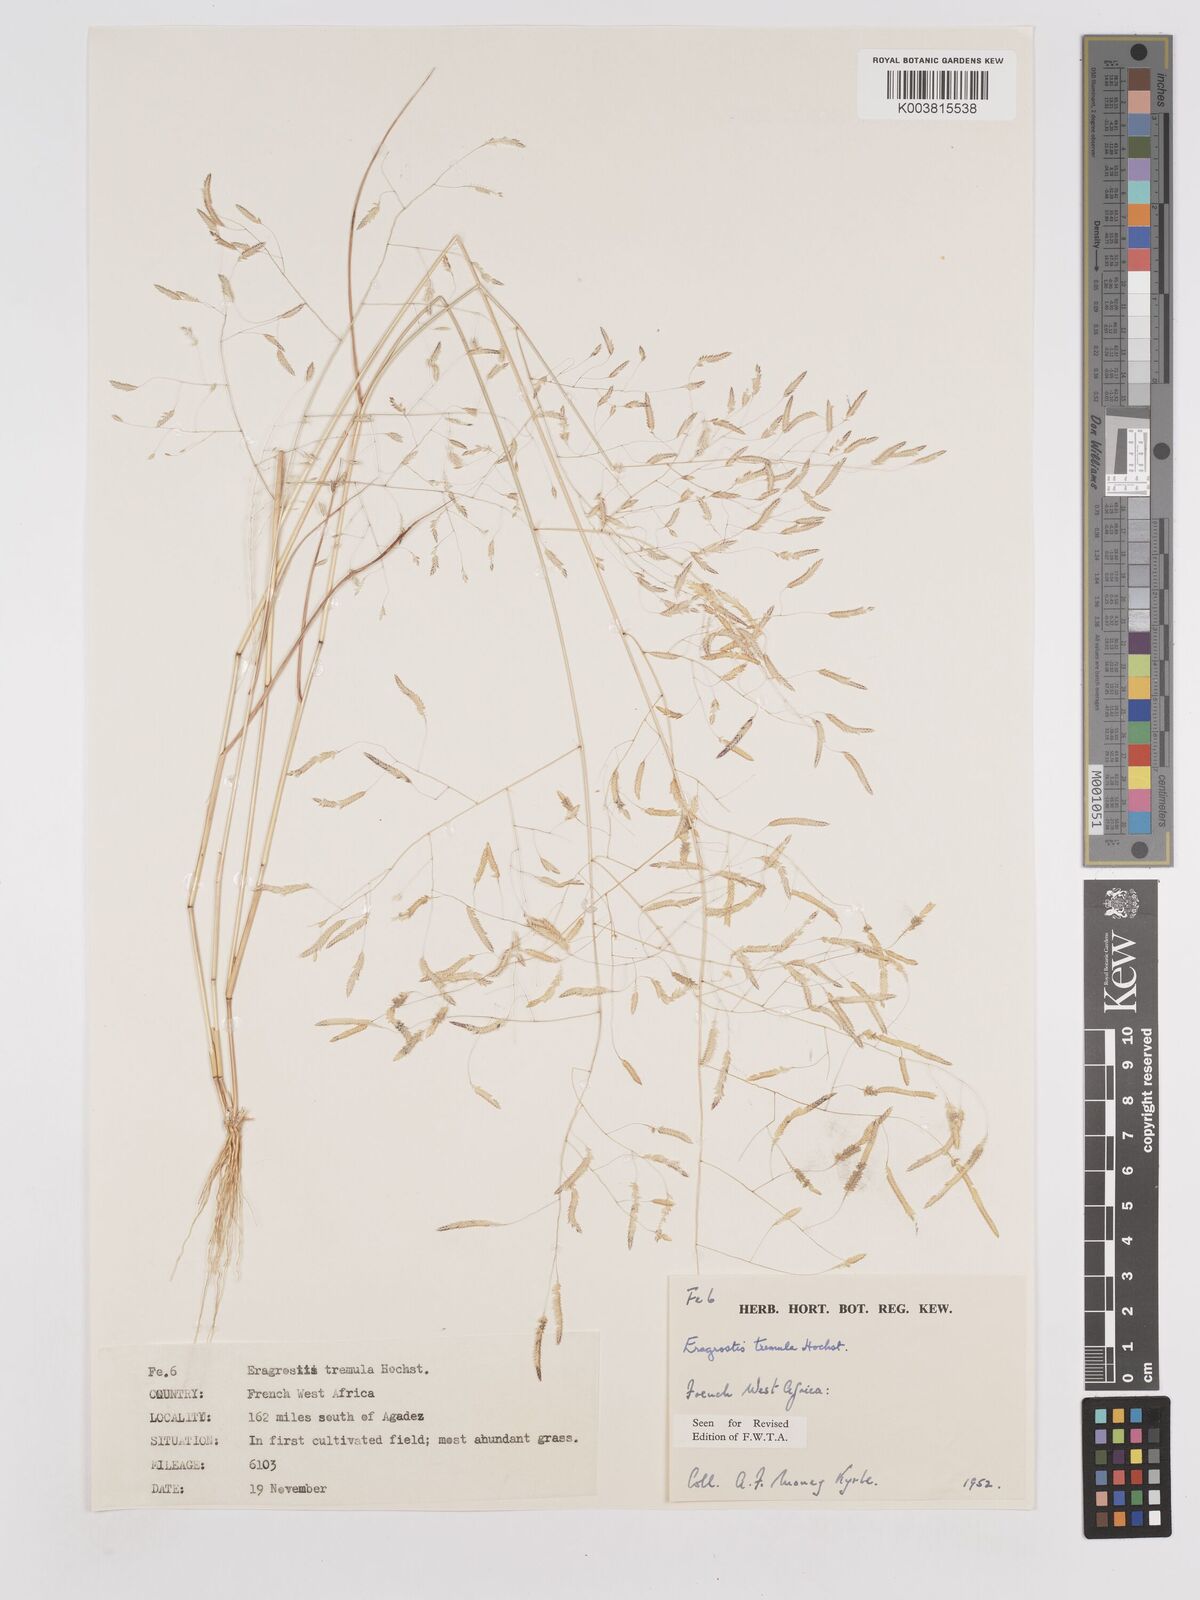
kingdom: Plantae
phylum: Tracheophyta
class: Liliopsida
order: Poales
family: Poaceae
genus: Eragrostis
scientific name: Eragrostis tremula
